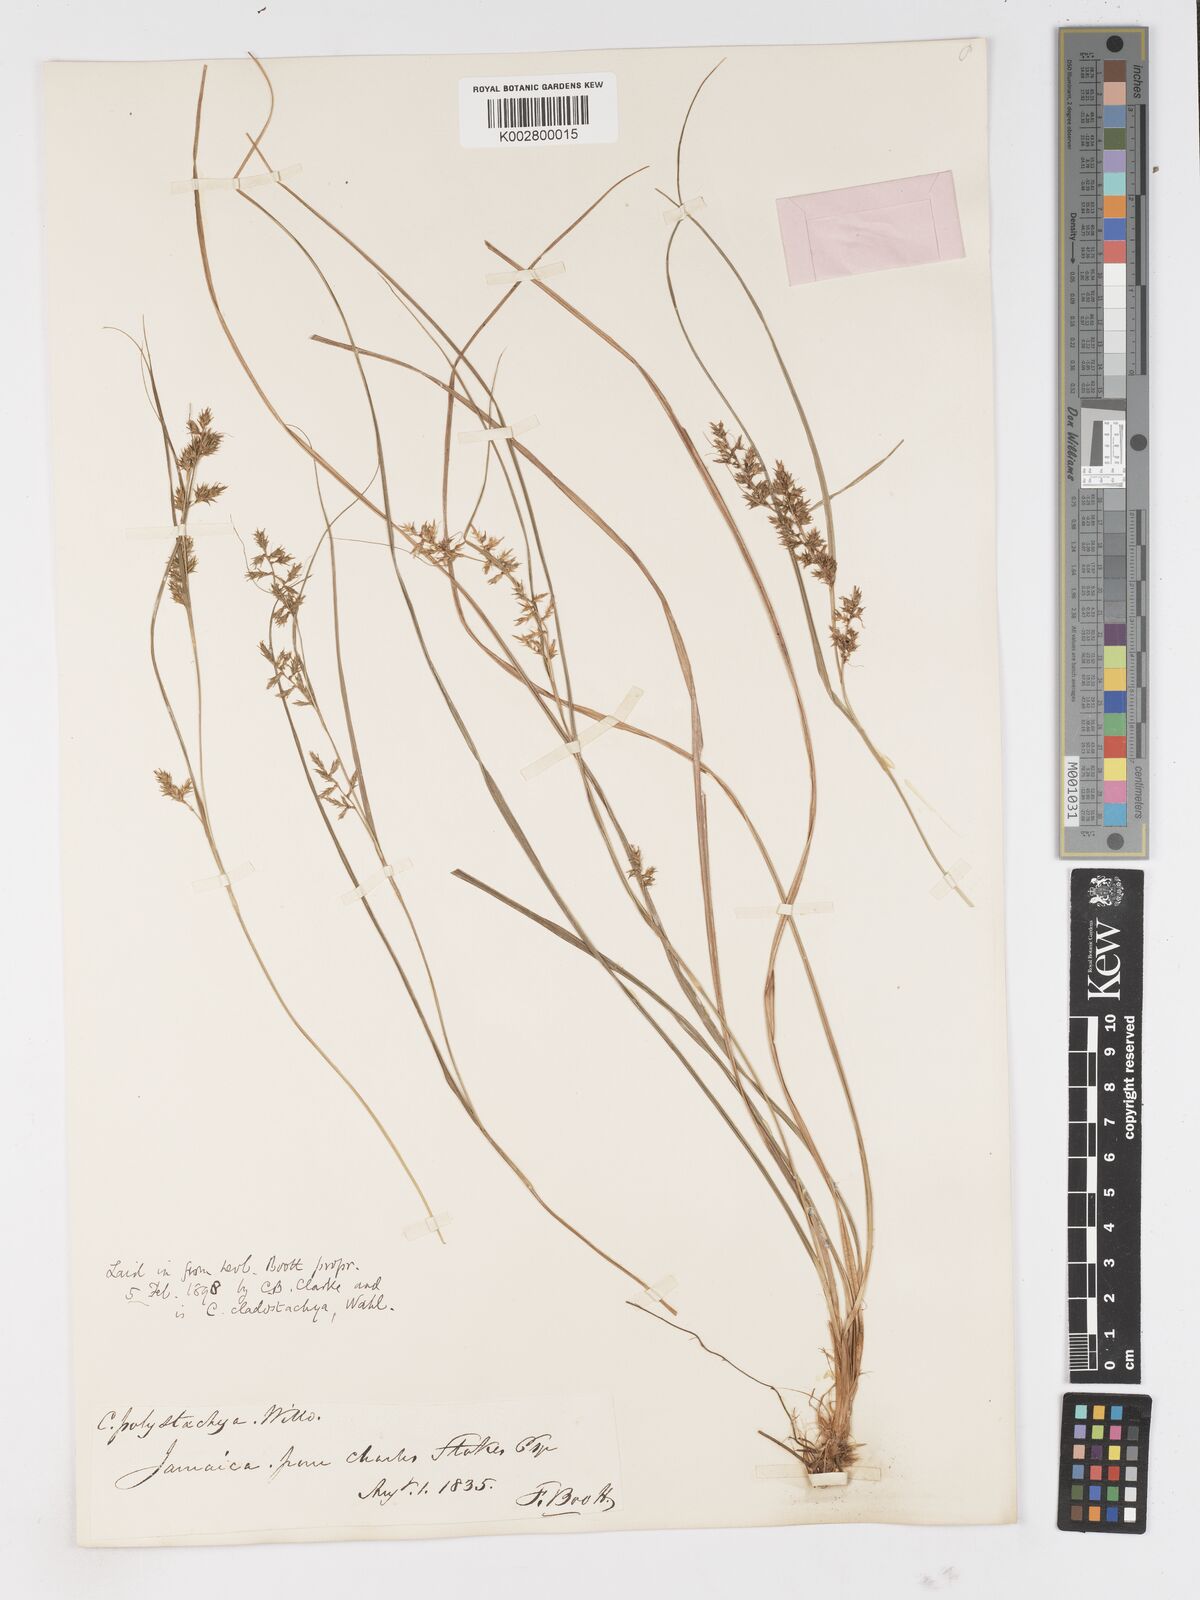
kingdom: Plantae
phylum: Tracheophyta
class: Liliopsida
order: Poales
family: Cyperaceae
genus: Carex
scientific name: Carex polystachya
